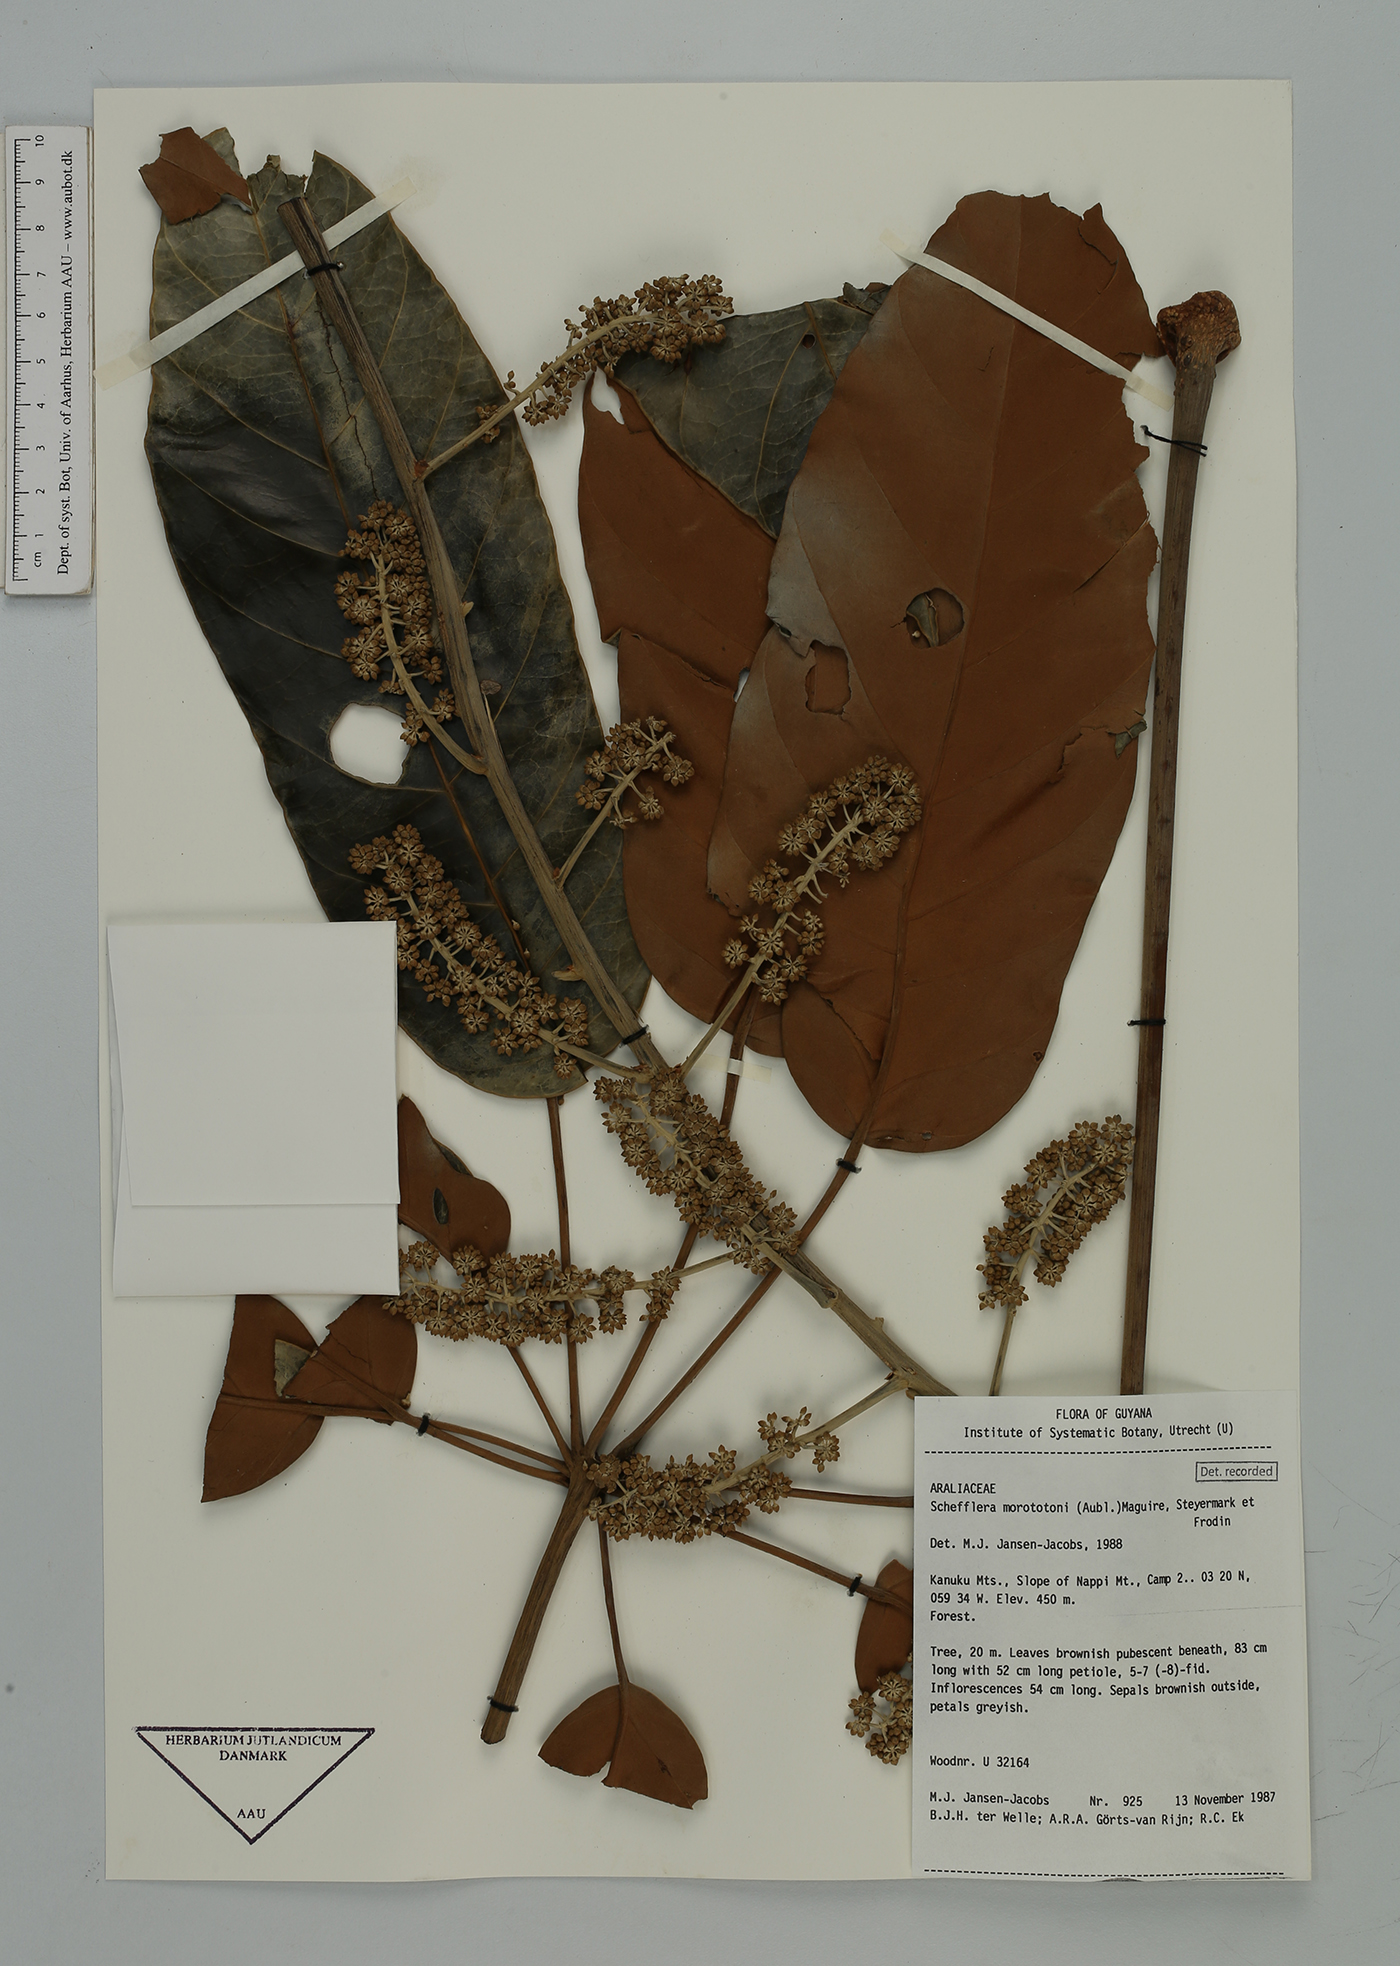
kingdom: Plantae
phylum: Tracheophyta
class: Magnoliopsida
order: Apiales
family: Araliaceae
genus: Didymopanax
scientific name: Didymopanax morototoni
